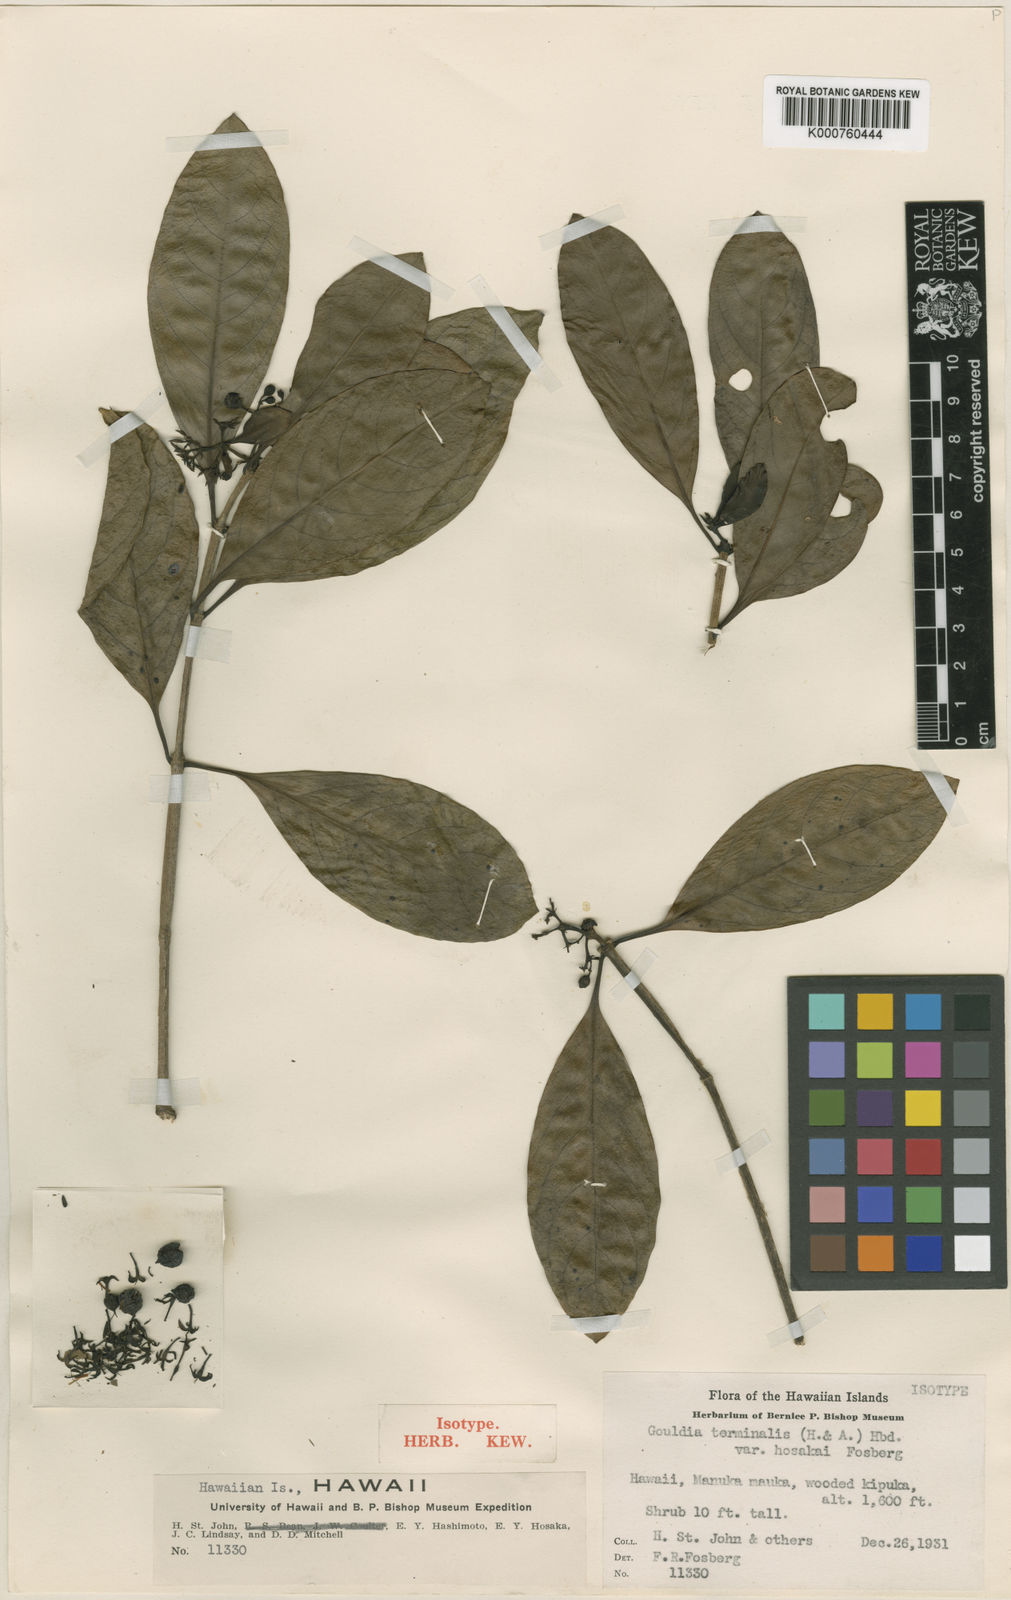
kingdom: Plantae
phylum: Tracheophyta
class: Magnoliopsida
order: Gentianales
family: Rubiaceae
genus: Kadua
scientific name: Kadua affinis
